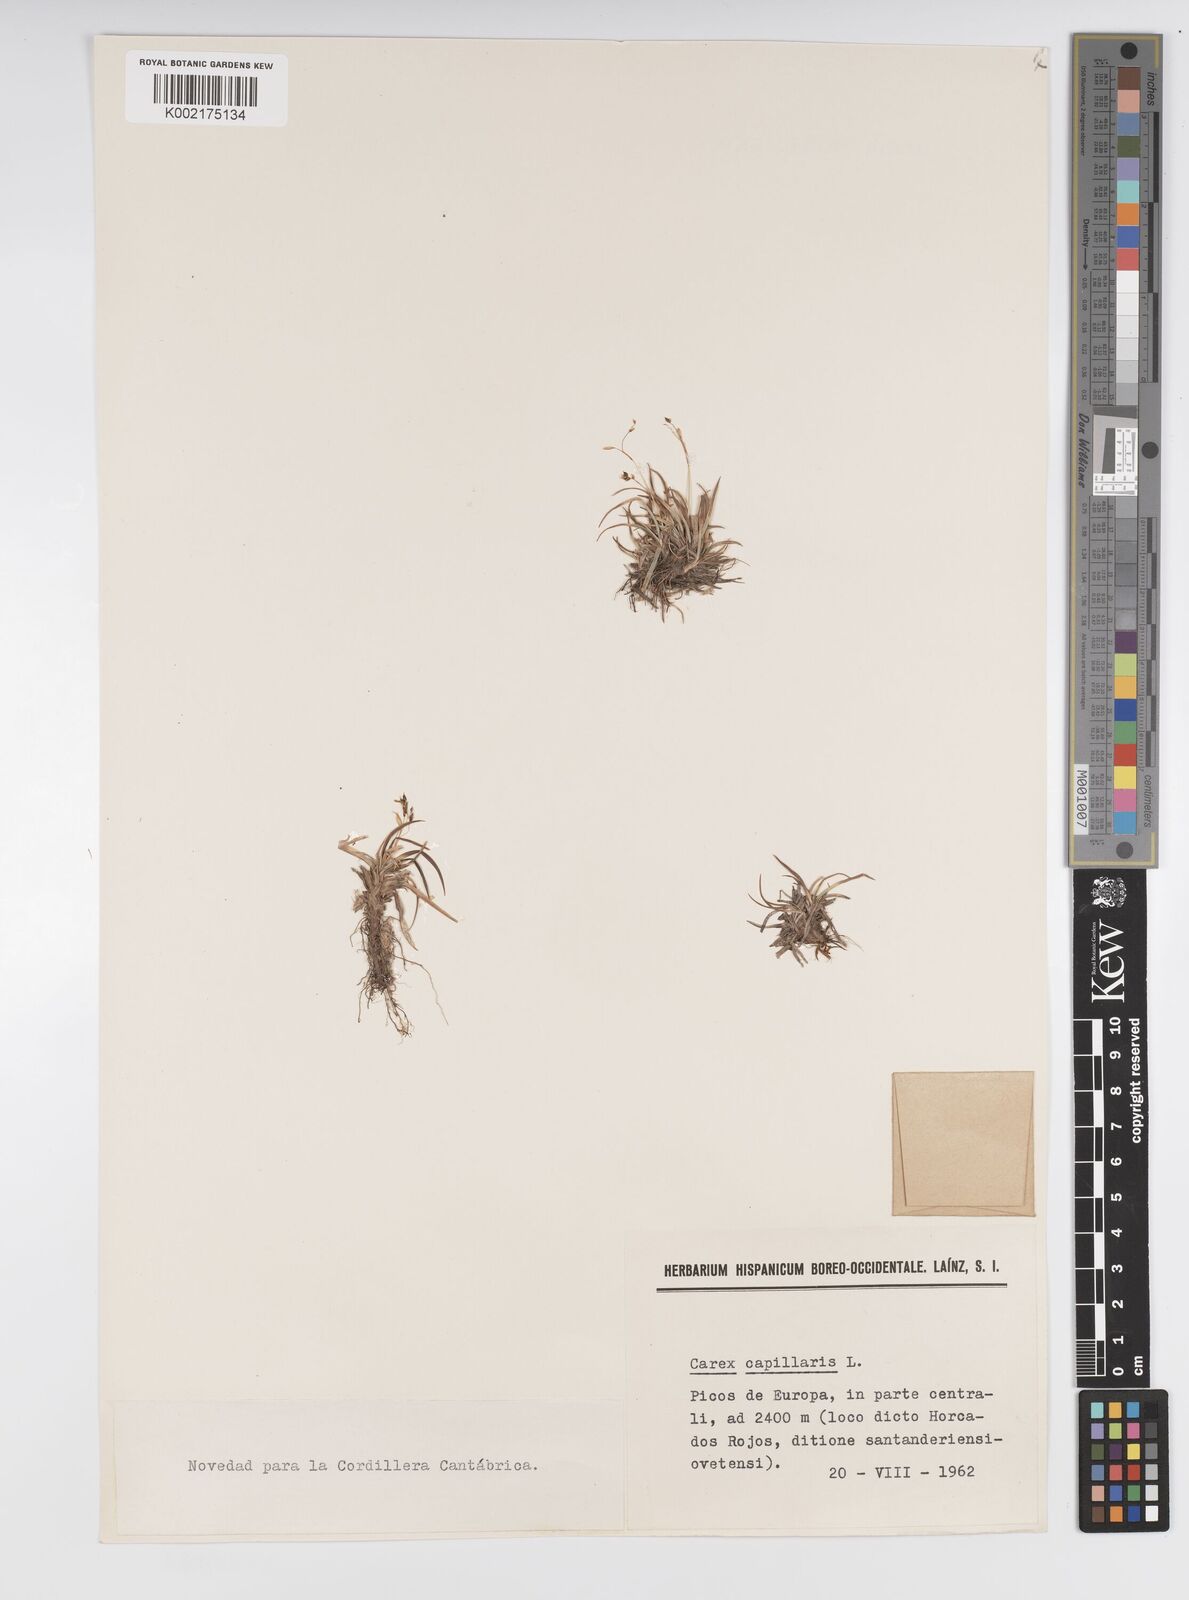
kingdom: Plantae
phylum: Tracheophyta
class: Liliopsida
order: Poales
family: Cyperaceae
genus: Carex
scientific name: Carex capillaris
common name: Hair sedge
